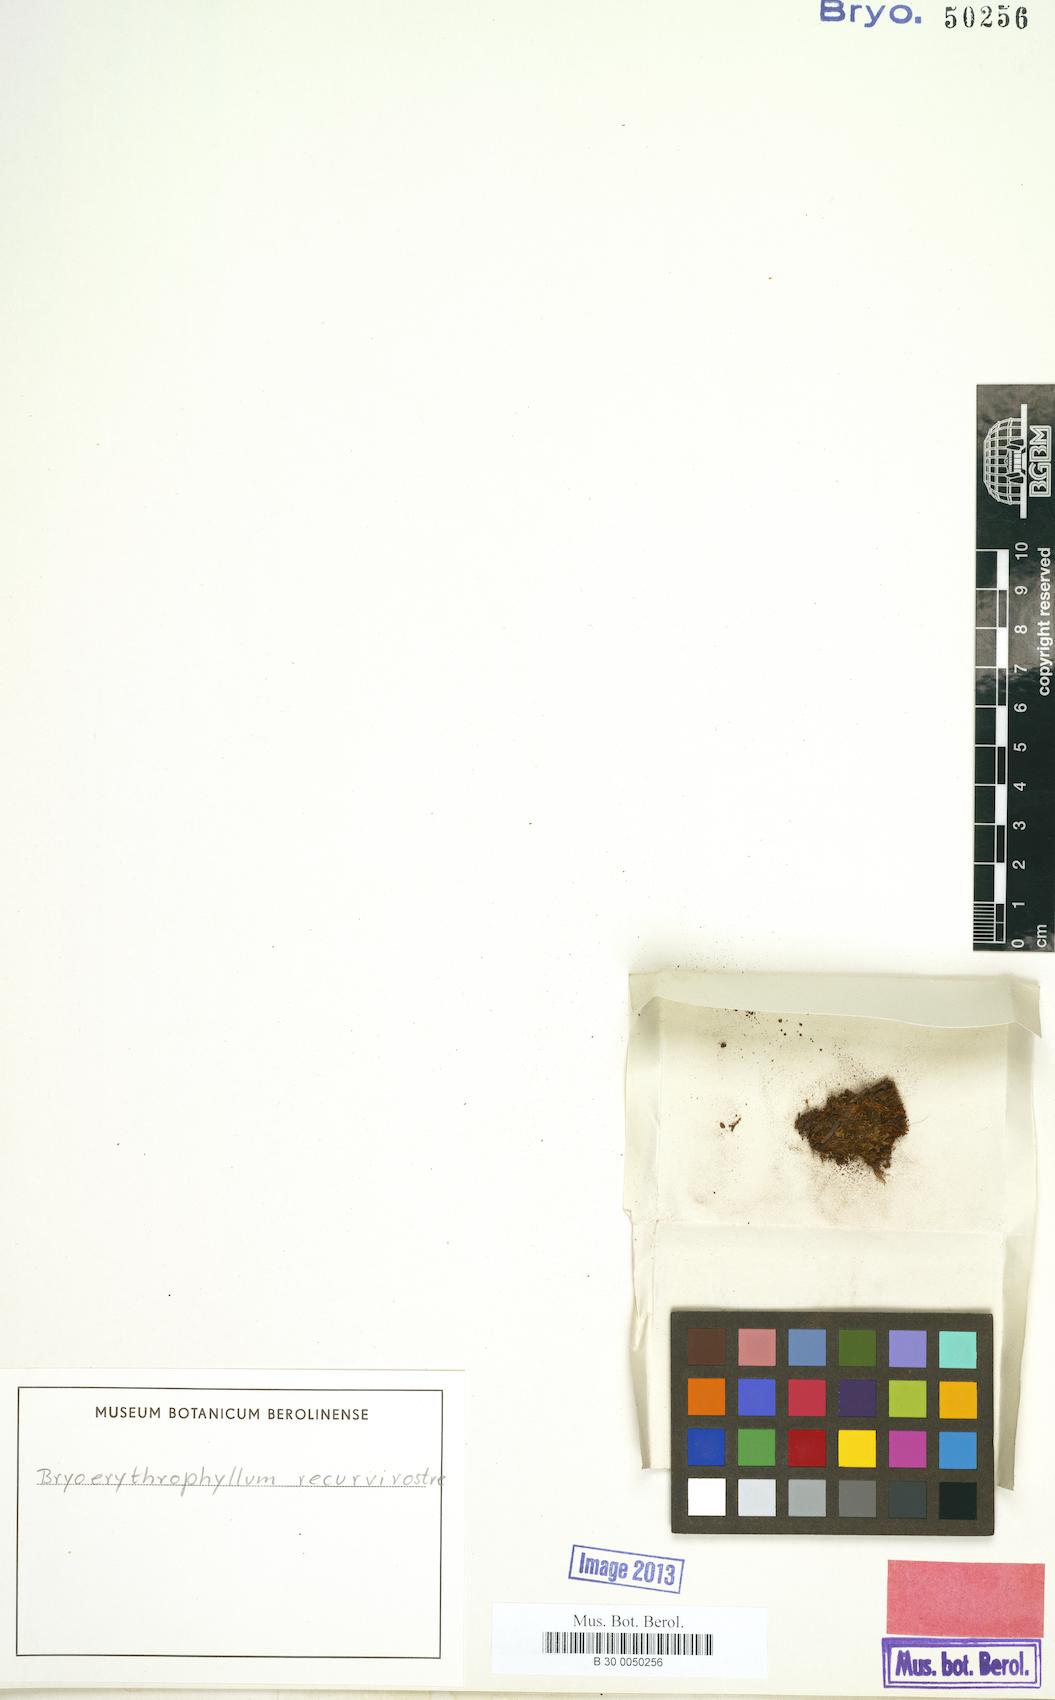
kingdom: Plantae
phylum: Bryophyta
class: Bryopsida
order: Pottiales
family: Pottiaceae
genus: Bryoerythrophyllum
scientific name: Bryoerythrophyllum recurvirostrum
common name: Red beard moss
